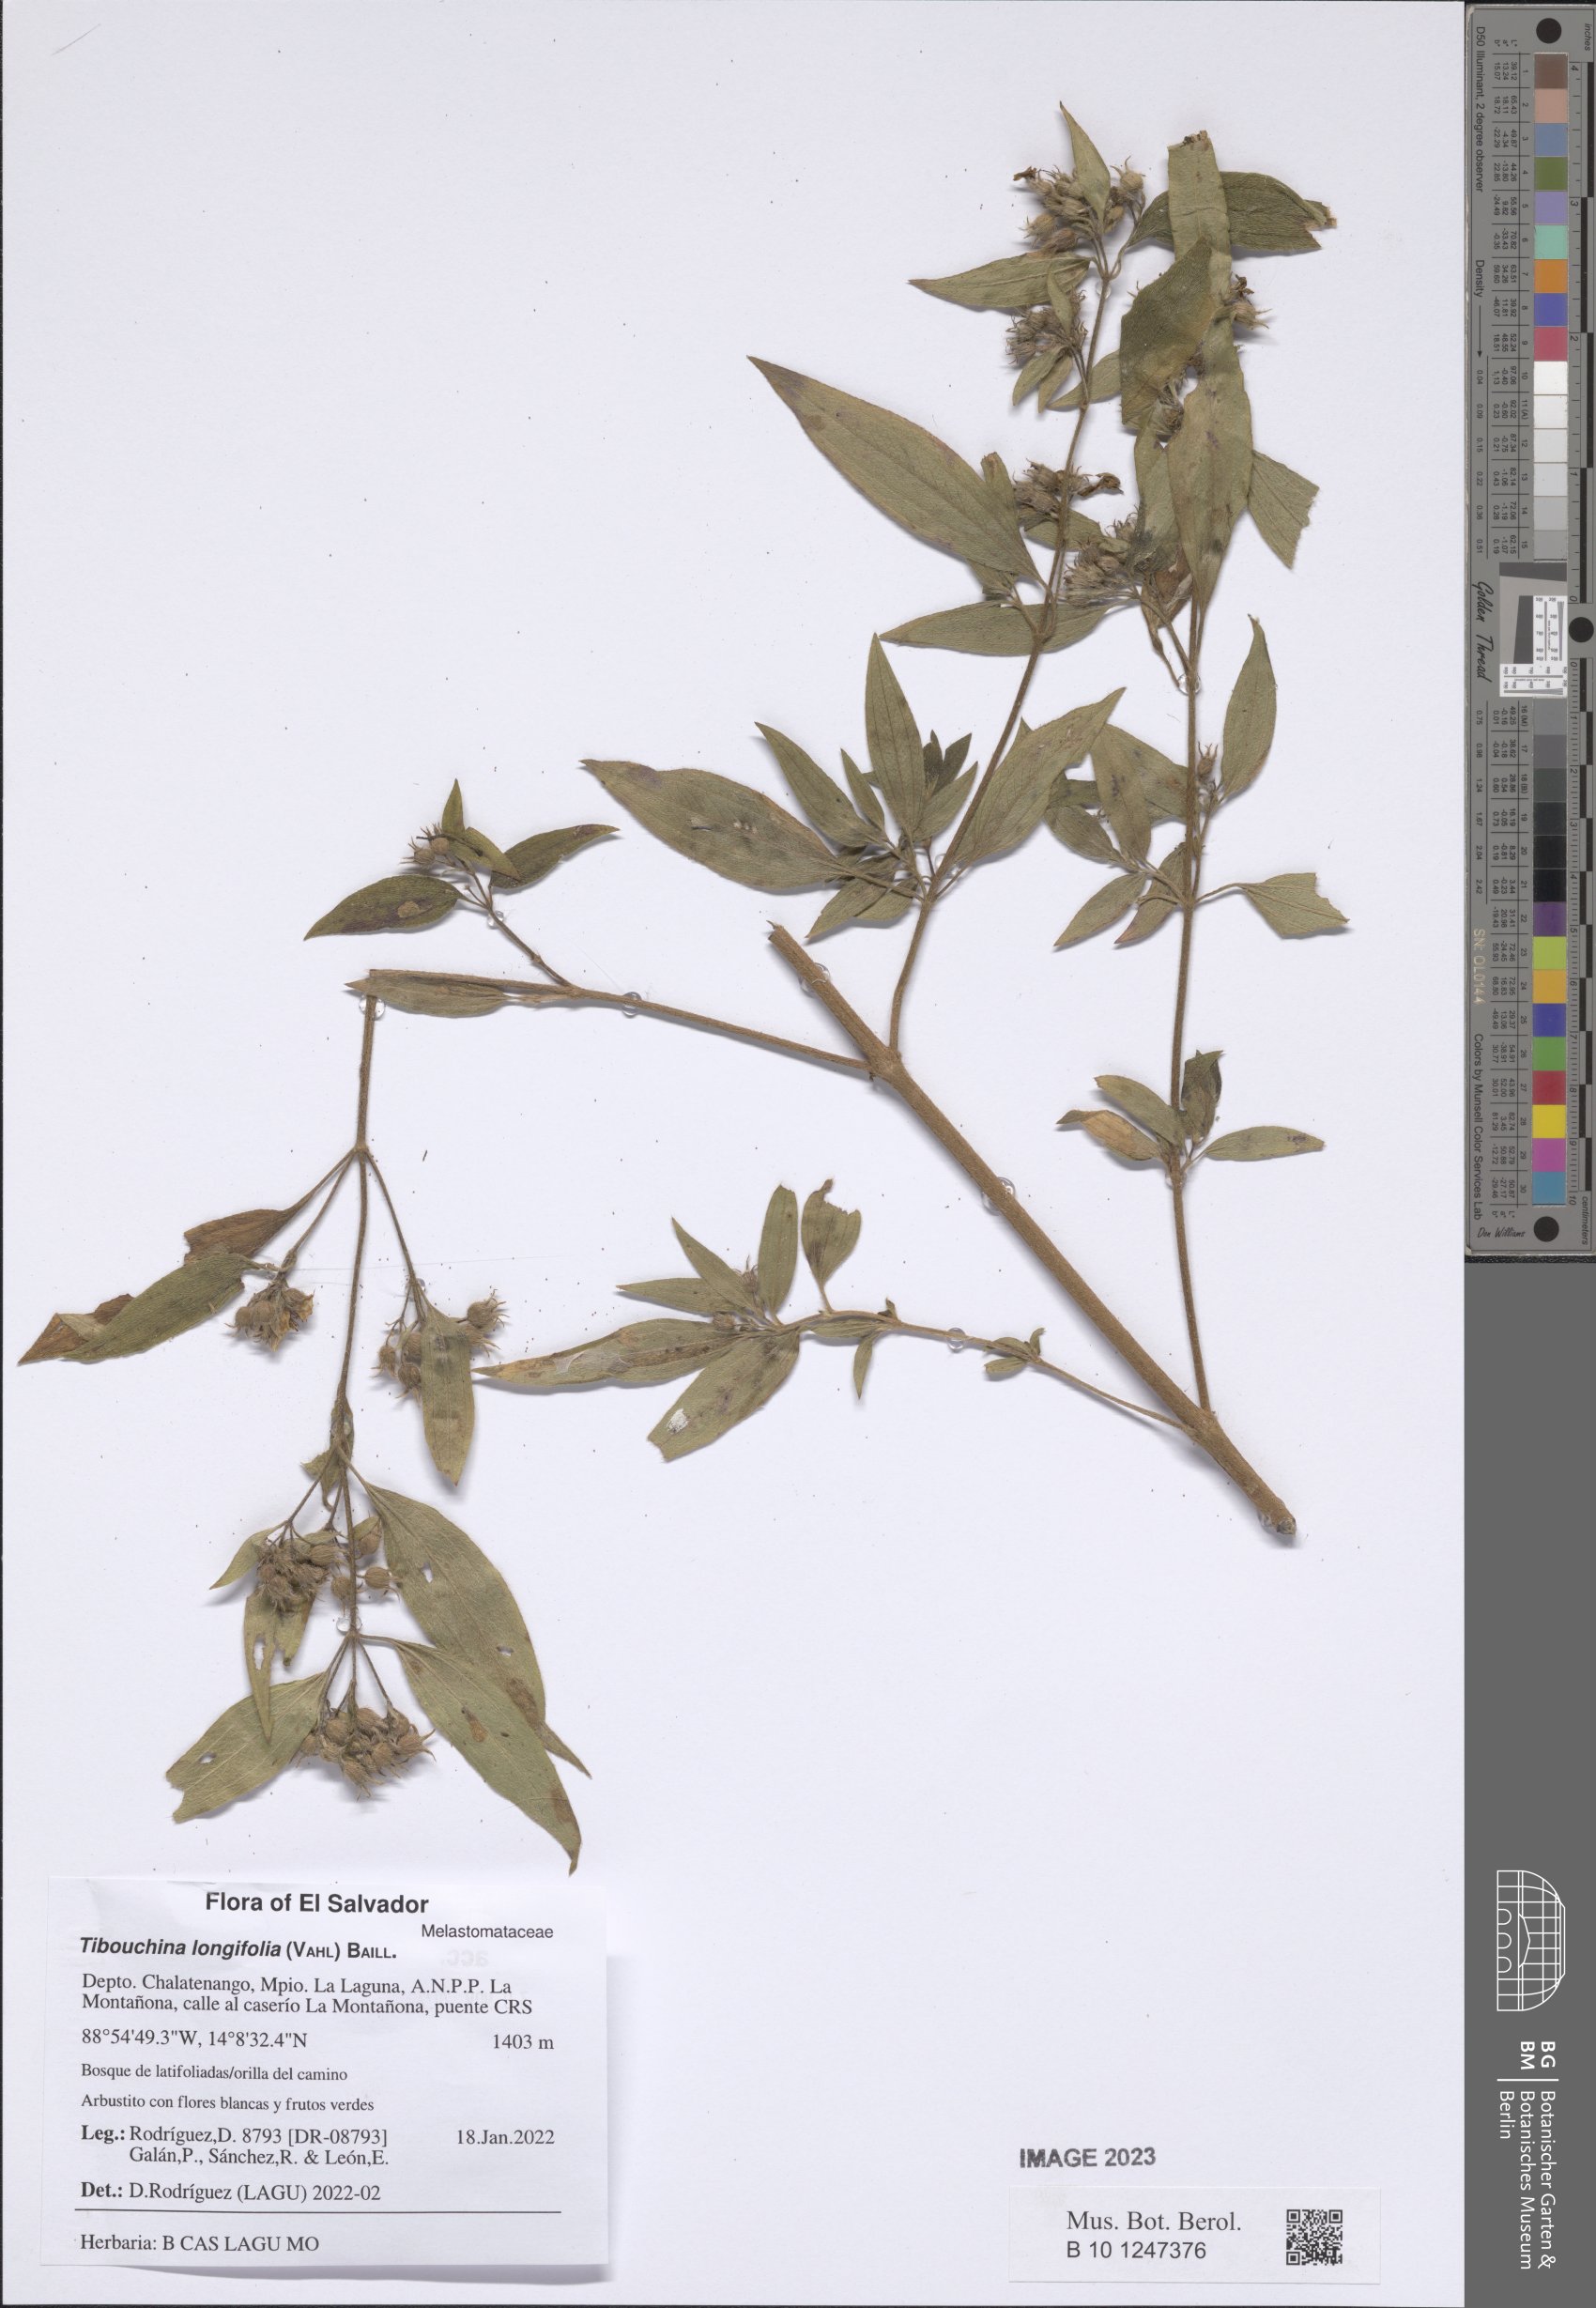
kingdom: Plantae
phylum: Tracheophyta
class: Magnoliopsida
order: Myrtales
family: Melastomataceae
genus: Chaetogastra
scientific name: Chaetogastra longifolia
